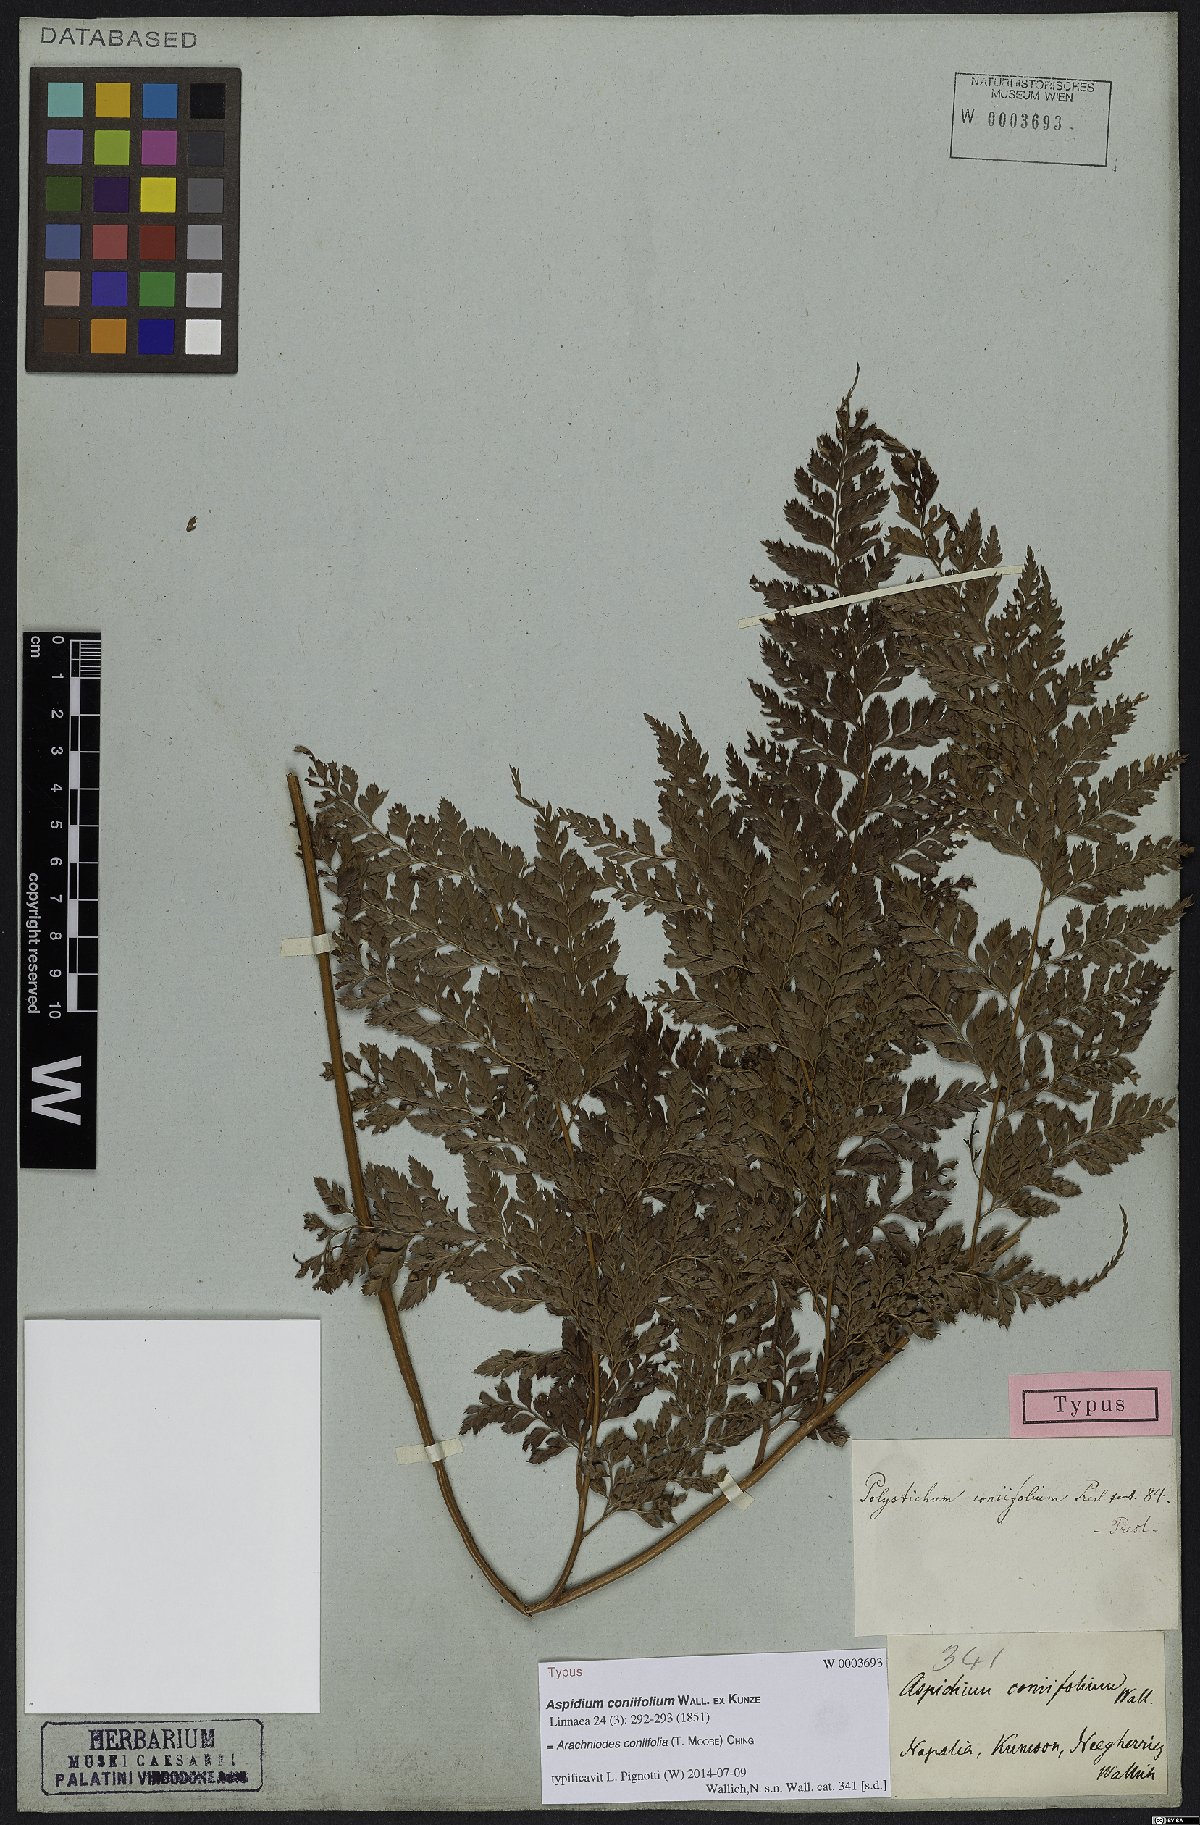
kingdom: Plantae
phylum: Tracheophyta
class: Polypodiopsida
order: Polypodiales
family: Dryopteridaceae
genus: Arachniodes
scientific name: Arachniodes coniifolia
